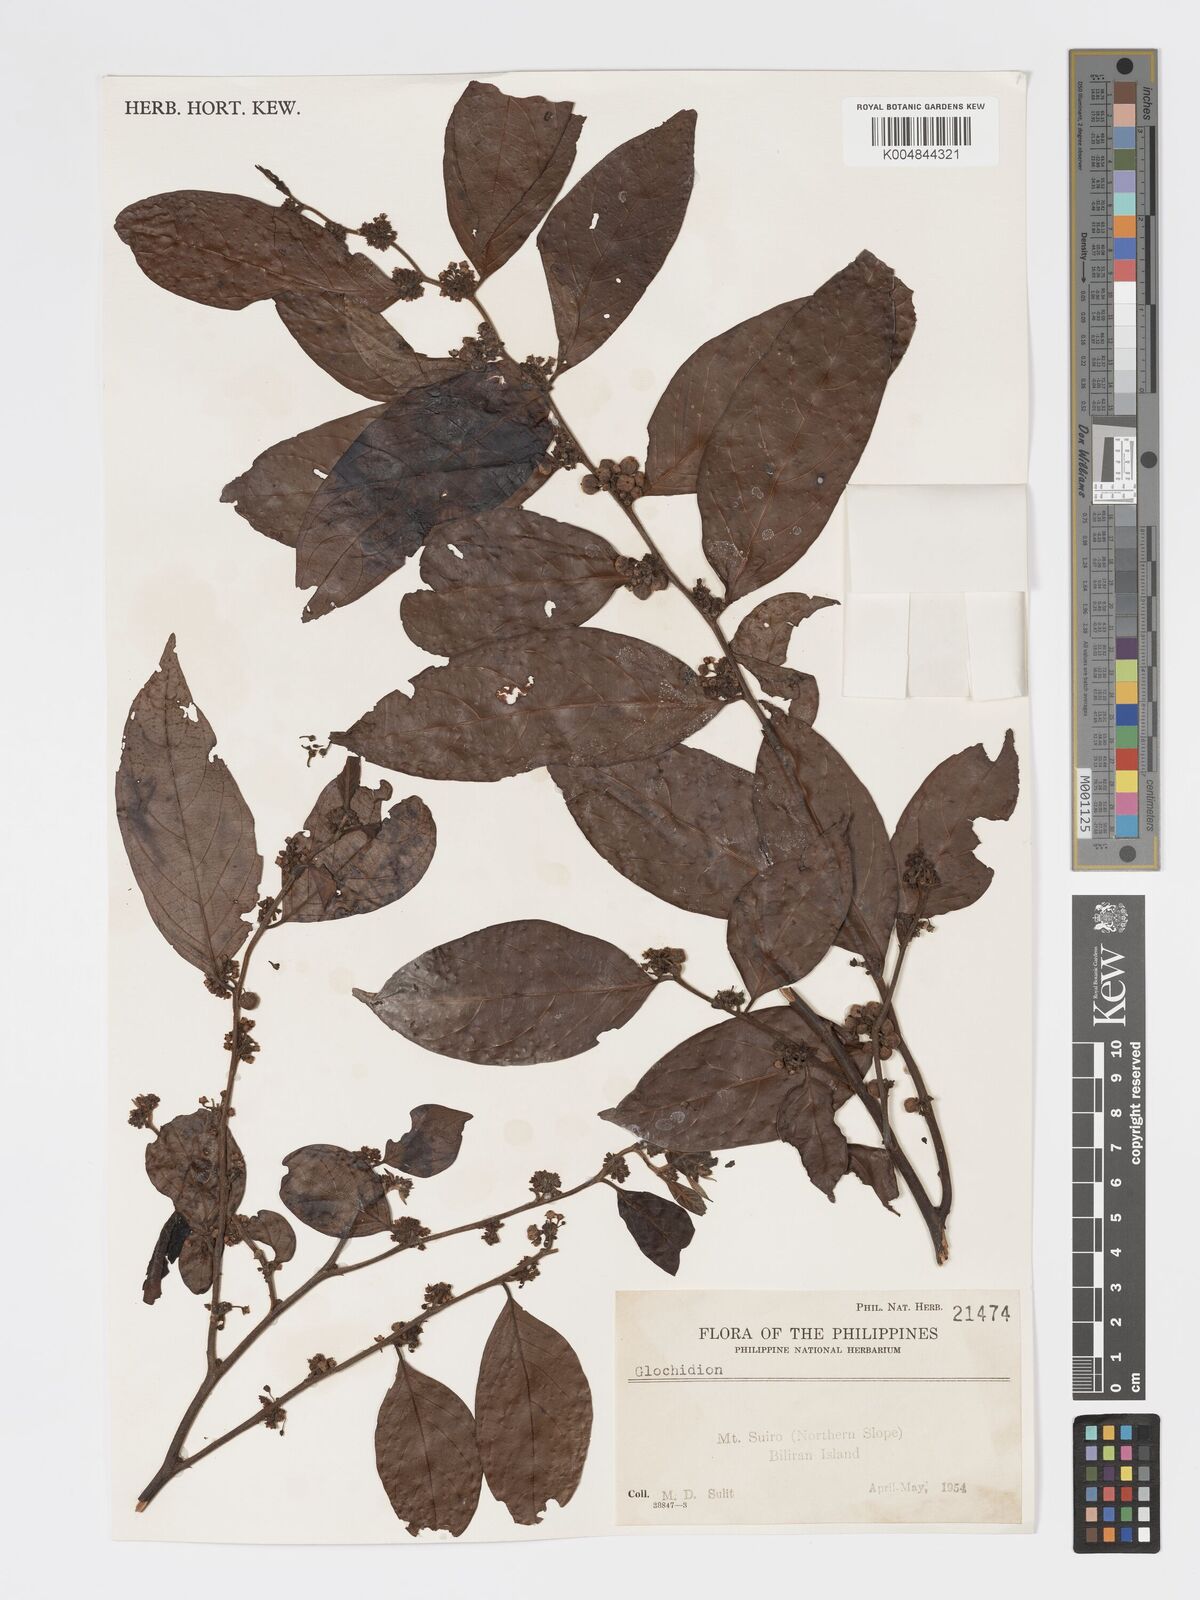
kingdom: Plantae
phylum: Tracheophyta
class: Magnoliopsida
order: Malpighiales
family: Phyllanthaceae
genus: Glochidion
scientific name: Glochidion angulatum
